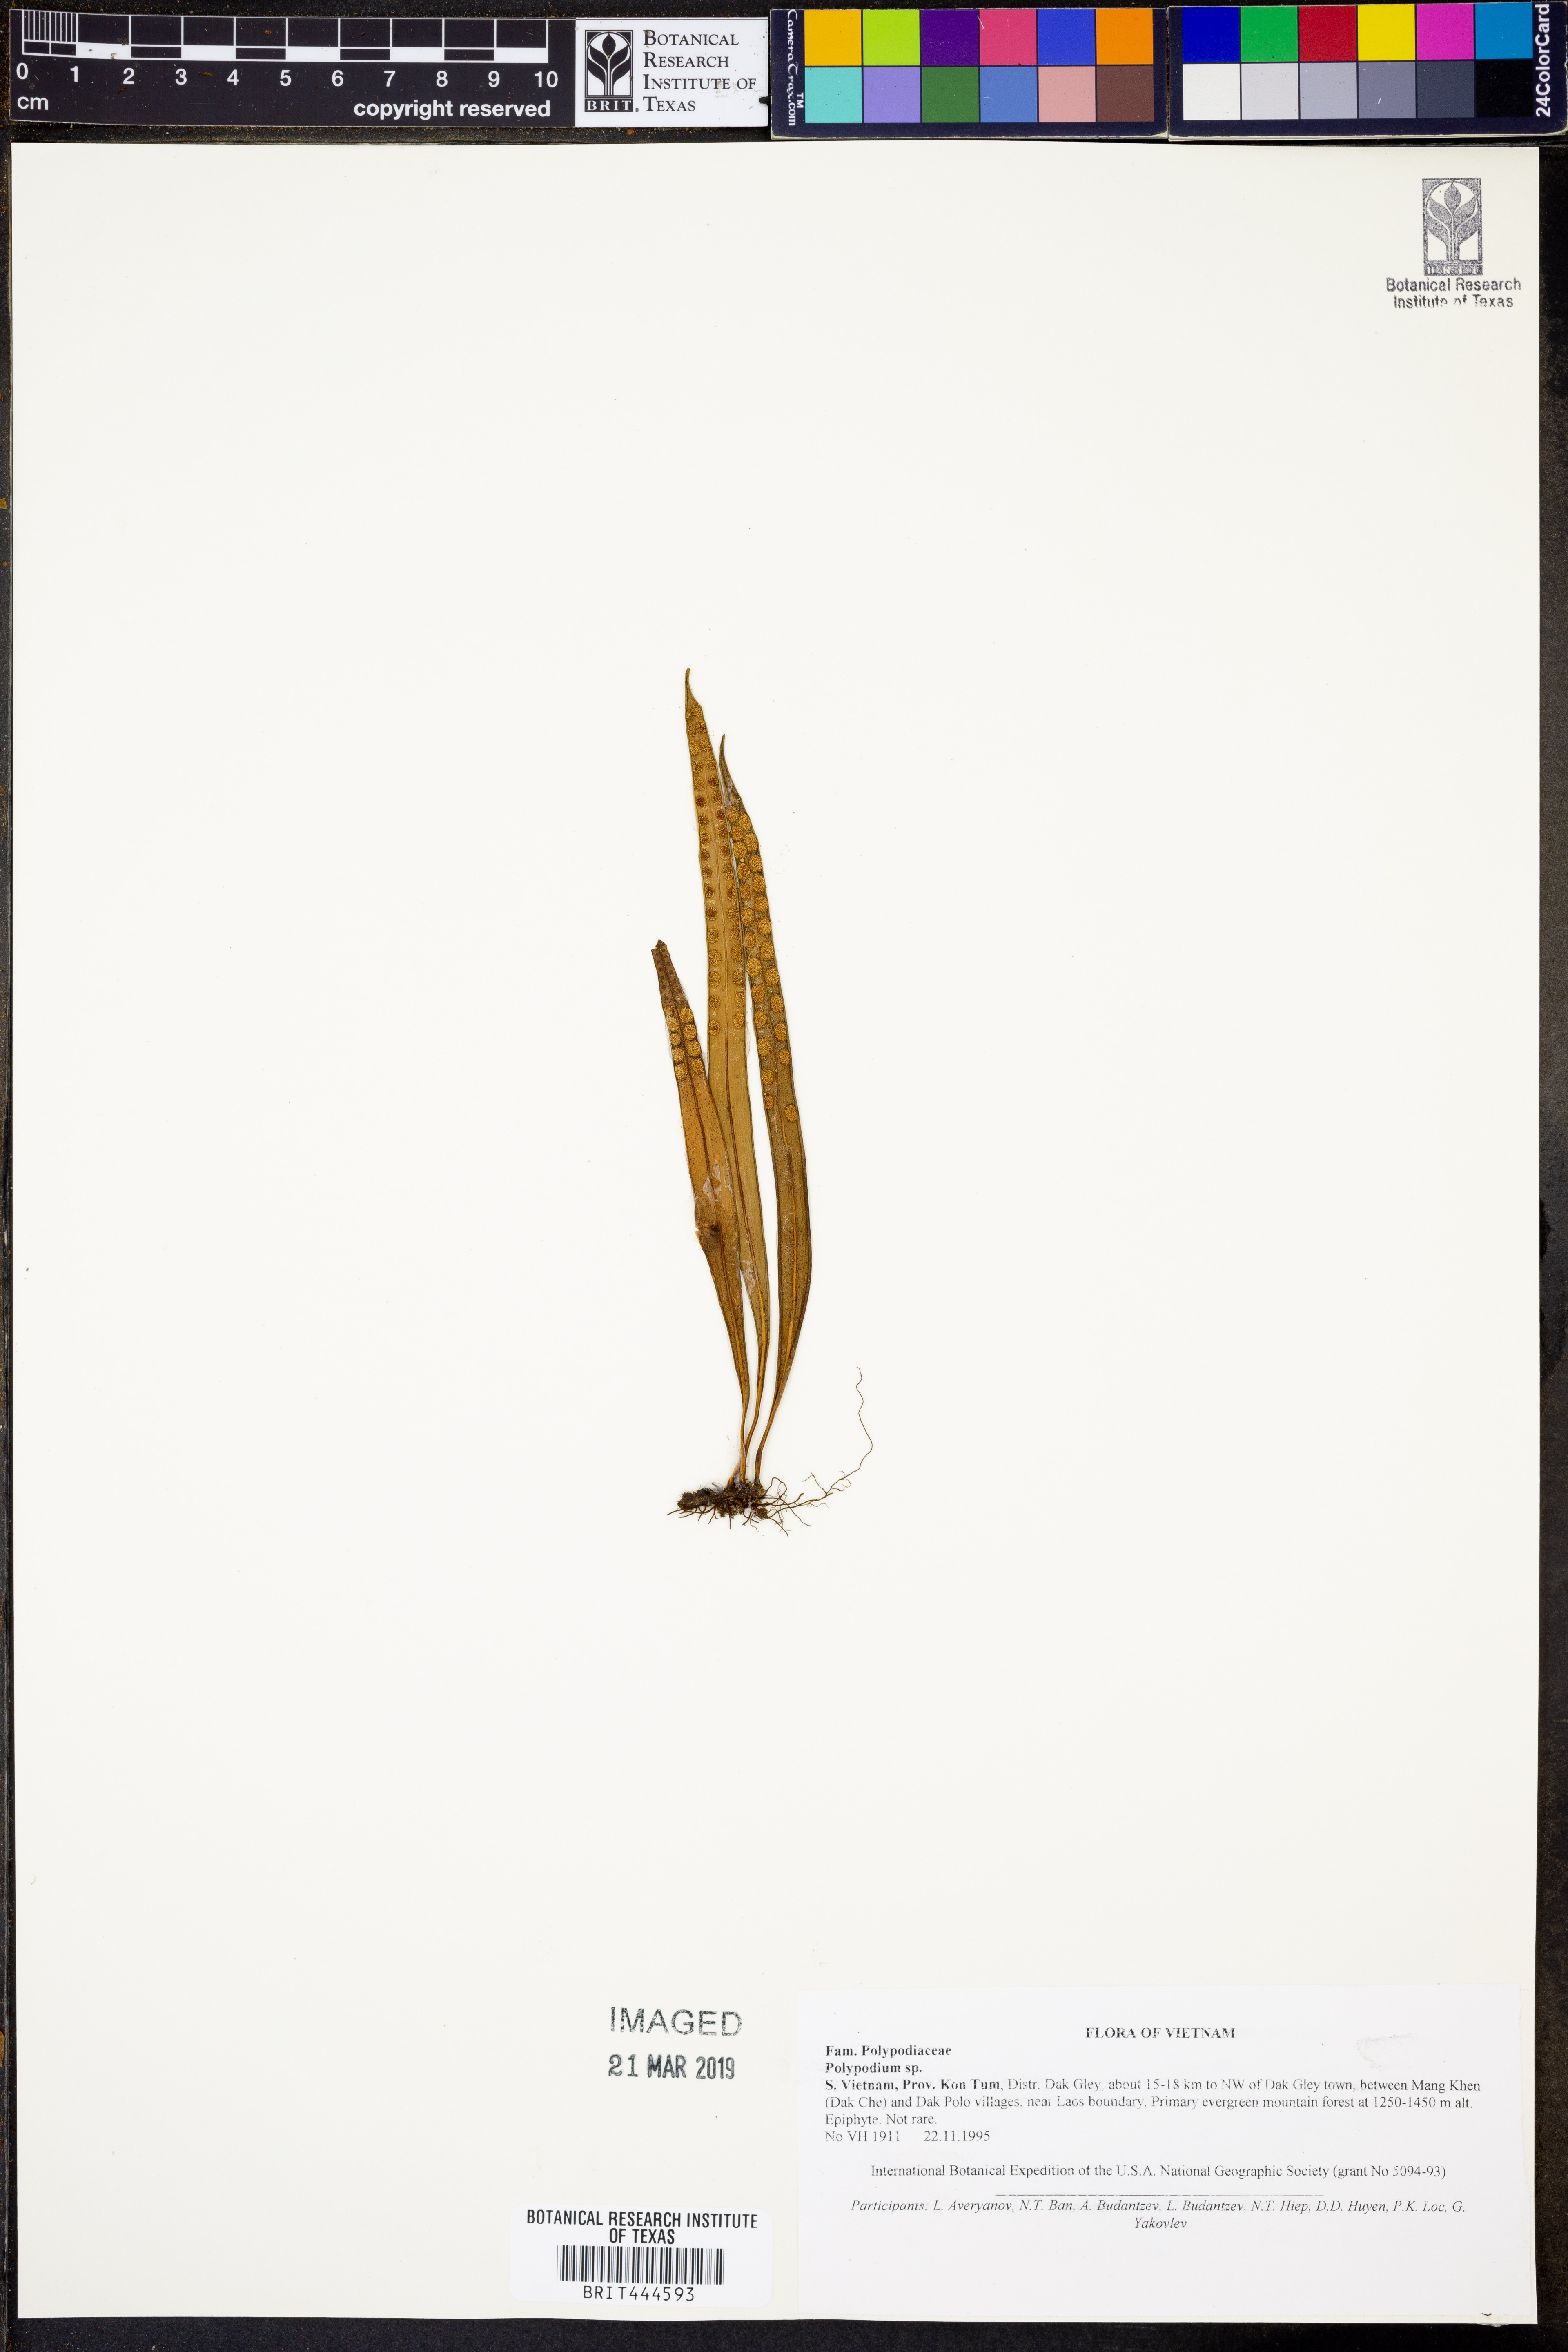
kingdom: Plantae
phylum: Tracheophyta
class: Polypodiopsida
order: Polypodiales
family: Polypodiaceae
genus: Polypodium
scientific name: Polypodium
